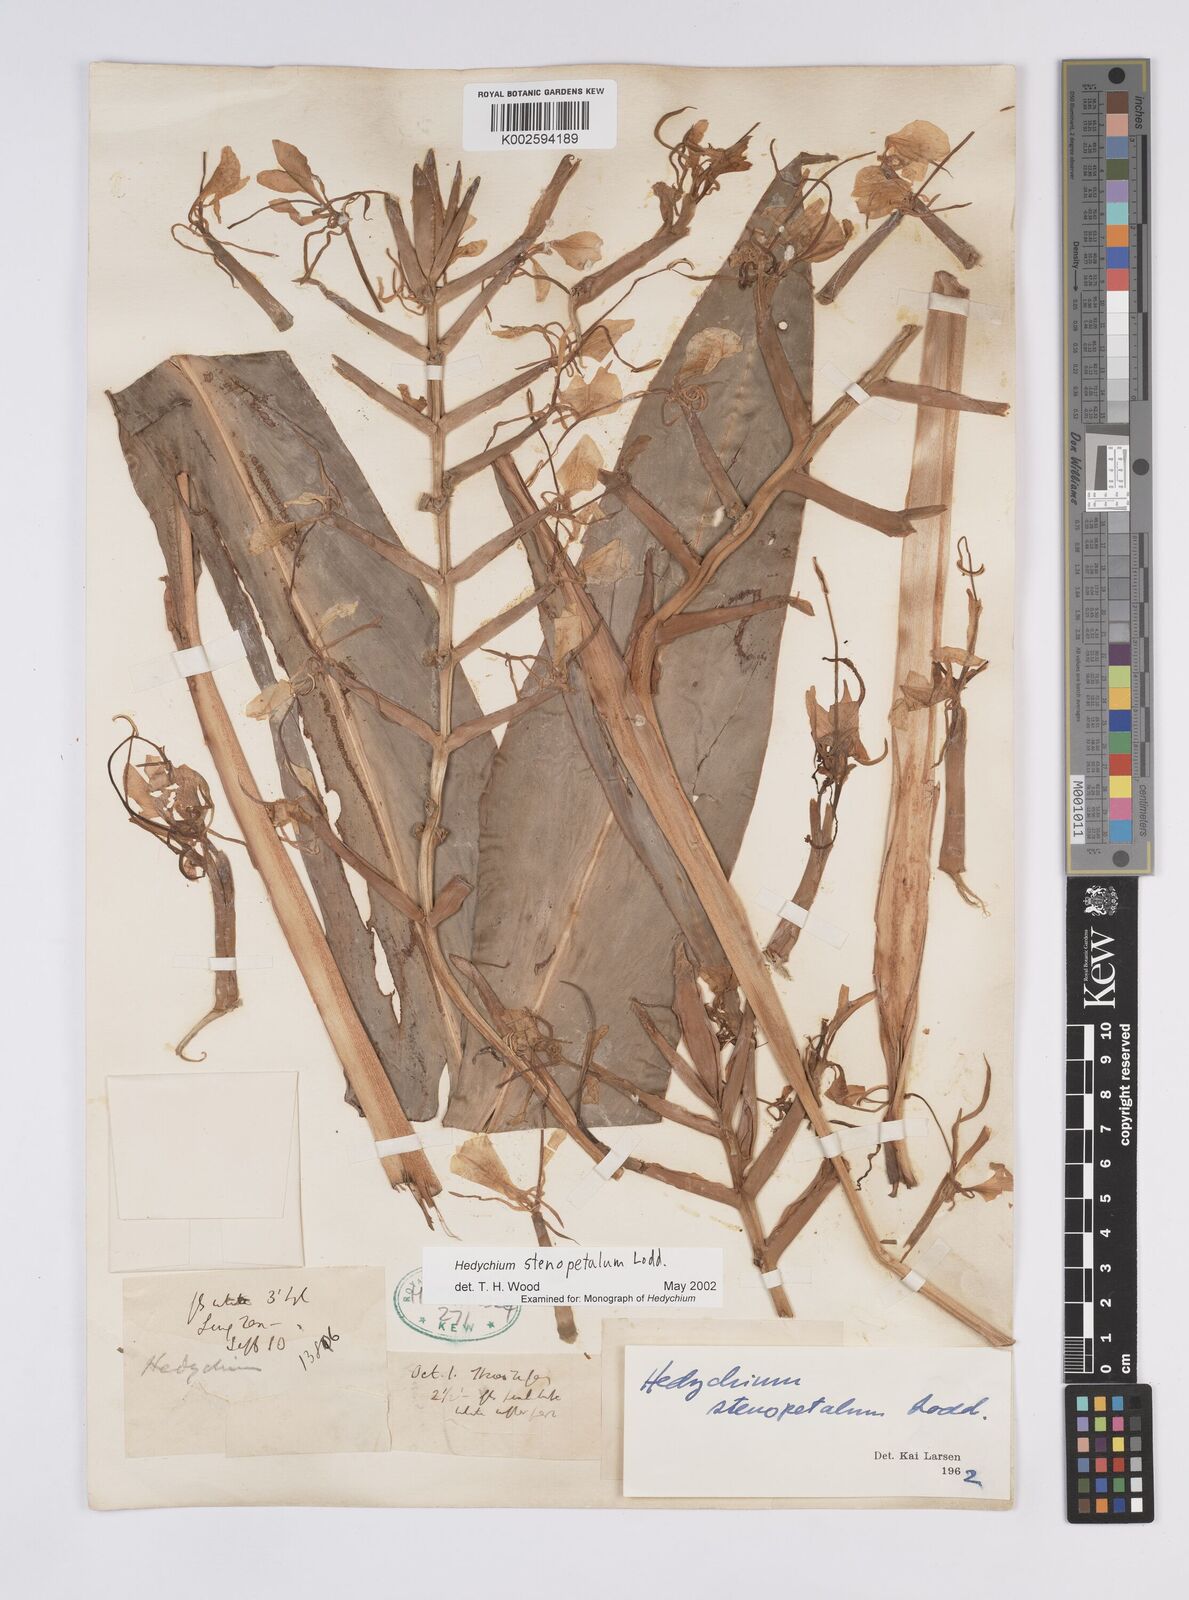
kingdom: Plantae
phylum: Tracheophyta
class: Liliopsida
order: Zingiberales
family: Zingiberaceae
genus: Hedychium
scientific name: Hedychium stenopetalum
